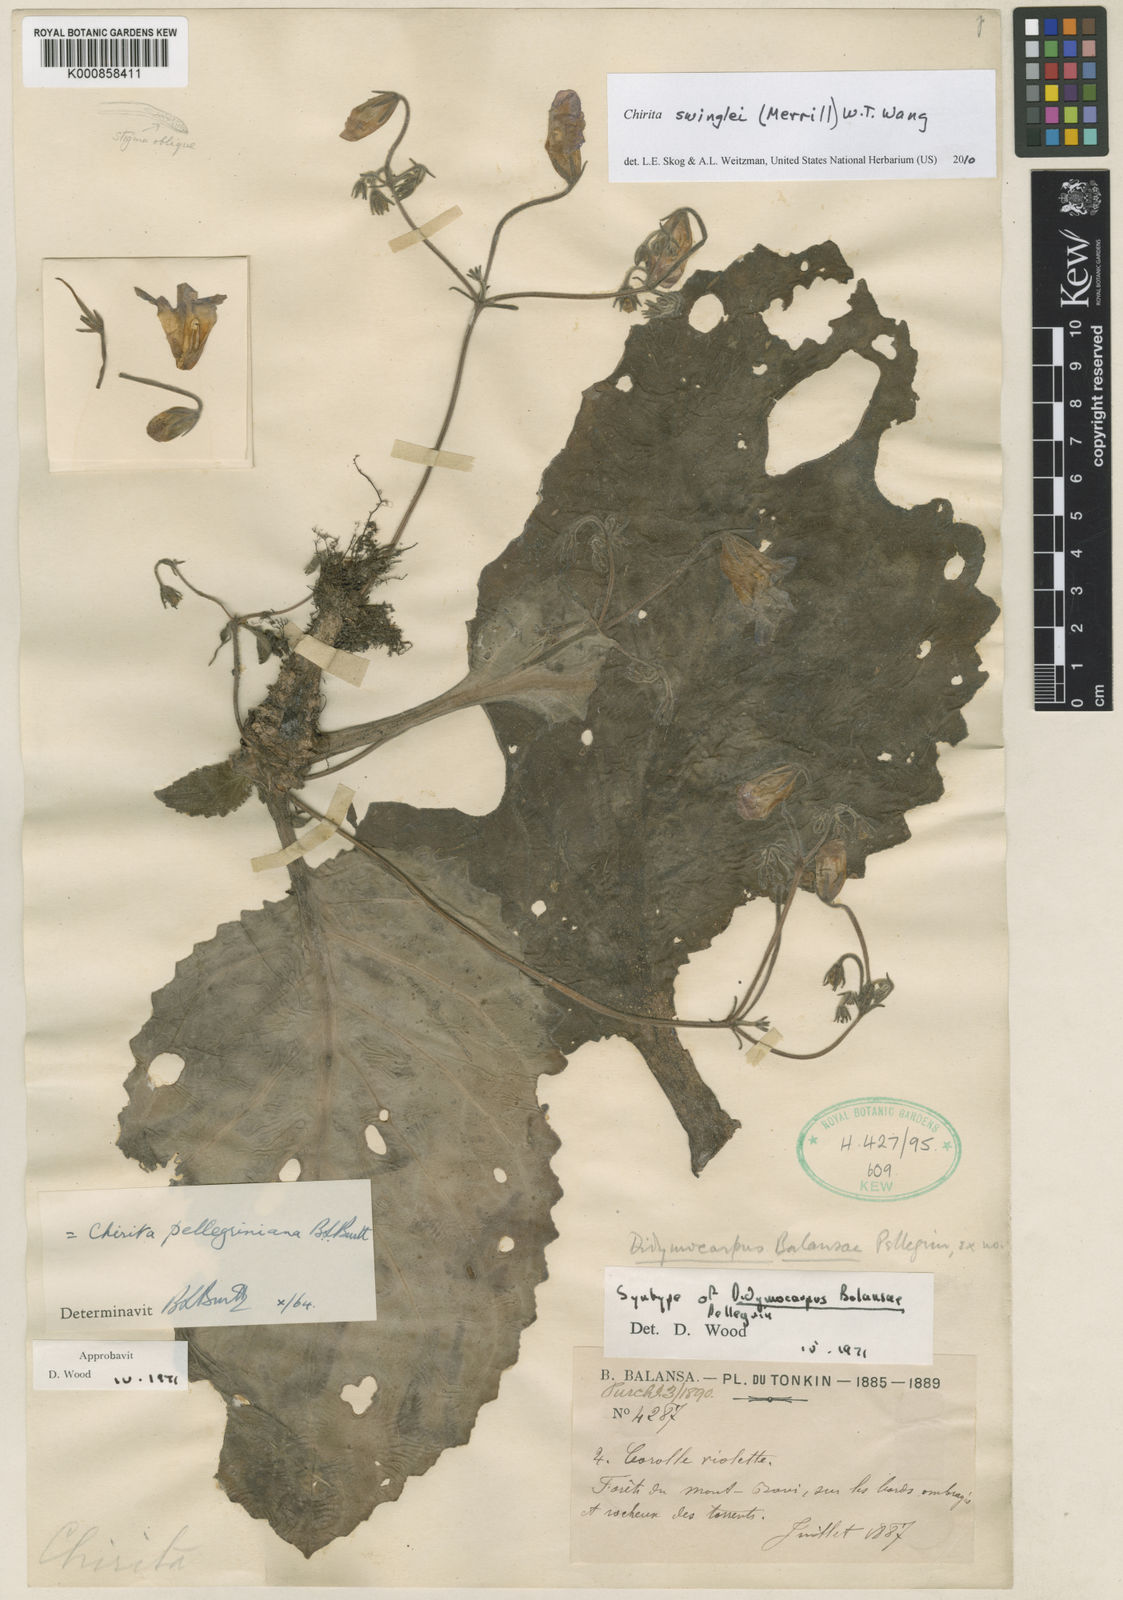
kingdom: Plantae
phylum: Tracheophyta
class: Magnoliopsida
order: Lamiales
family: Gesneriaceae
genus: Primulina
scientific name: Primulina
